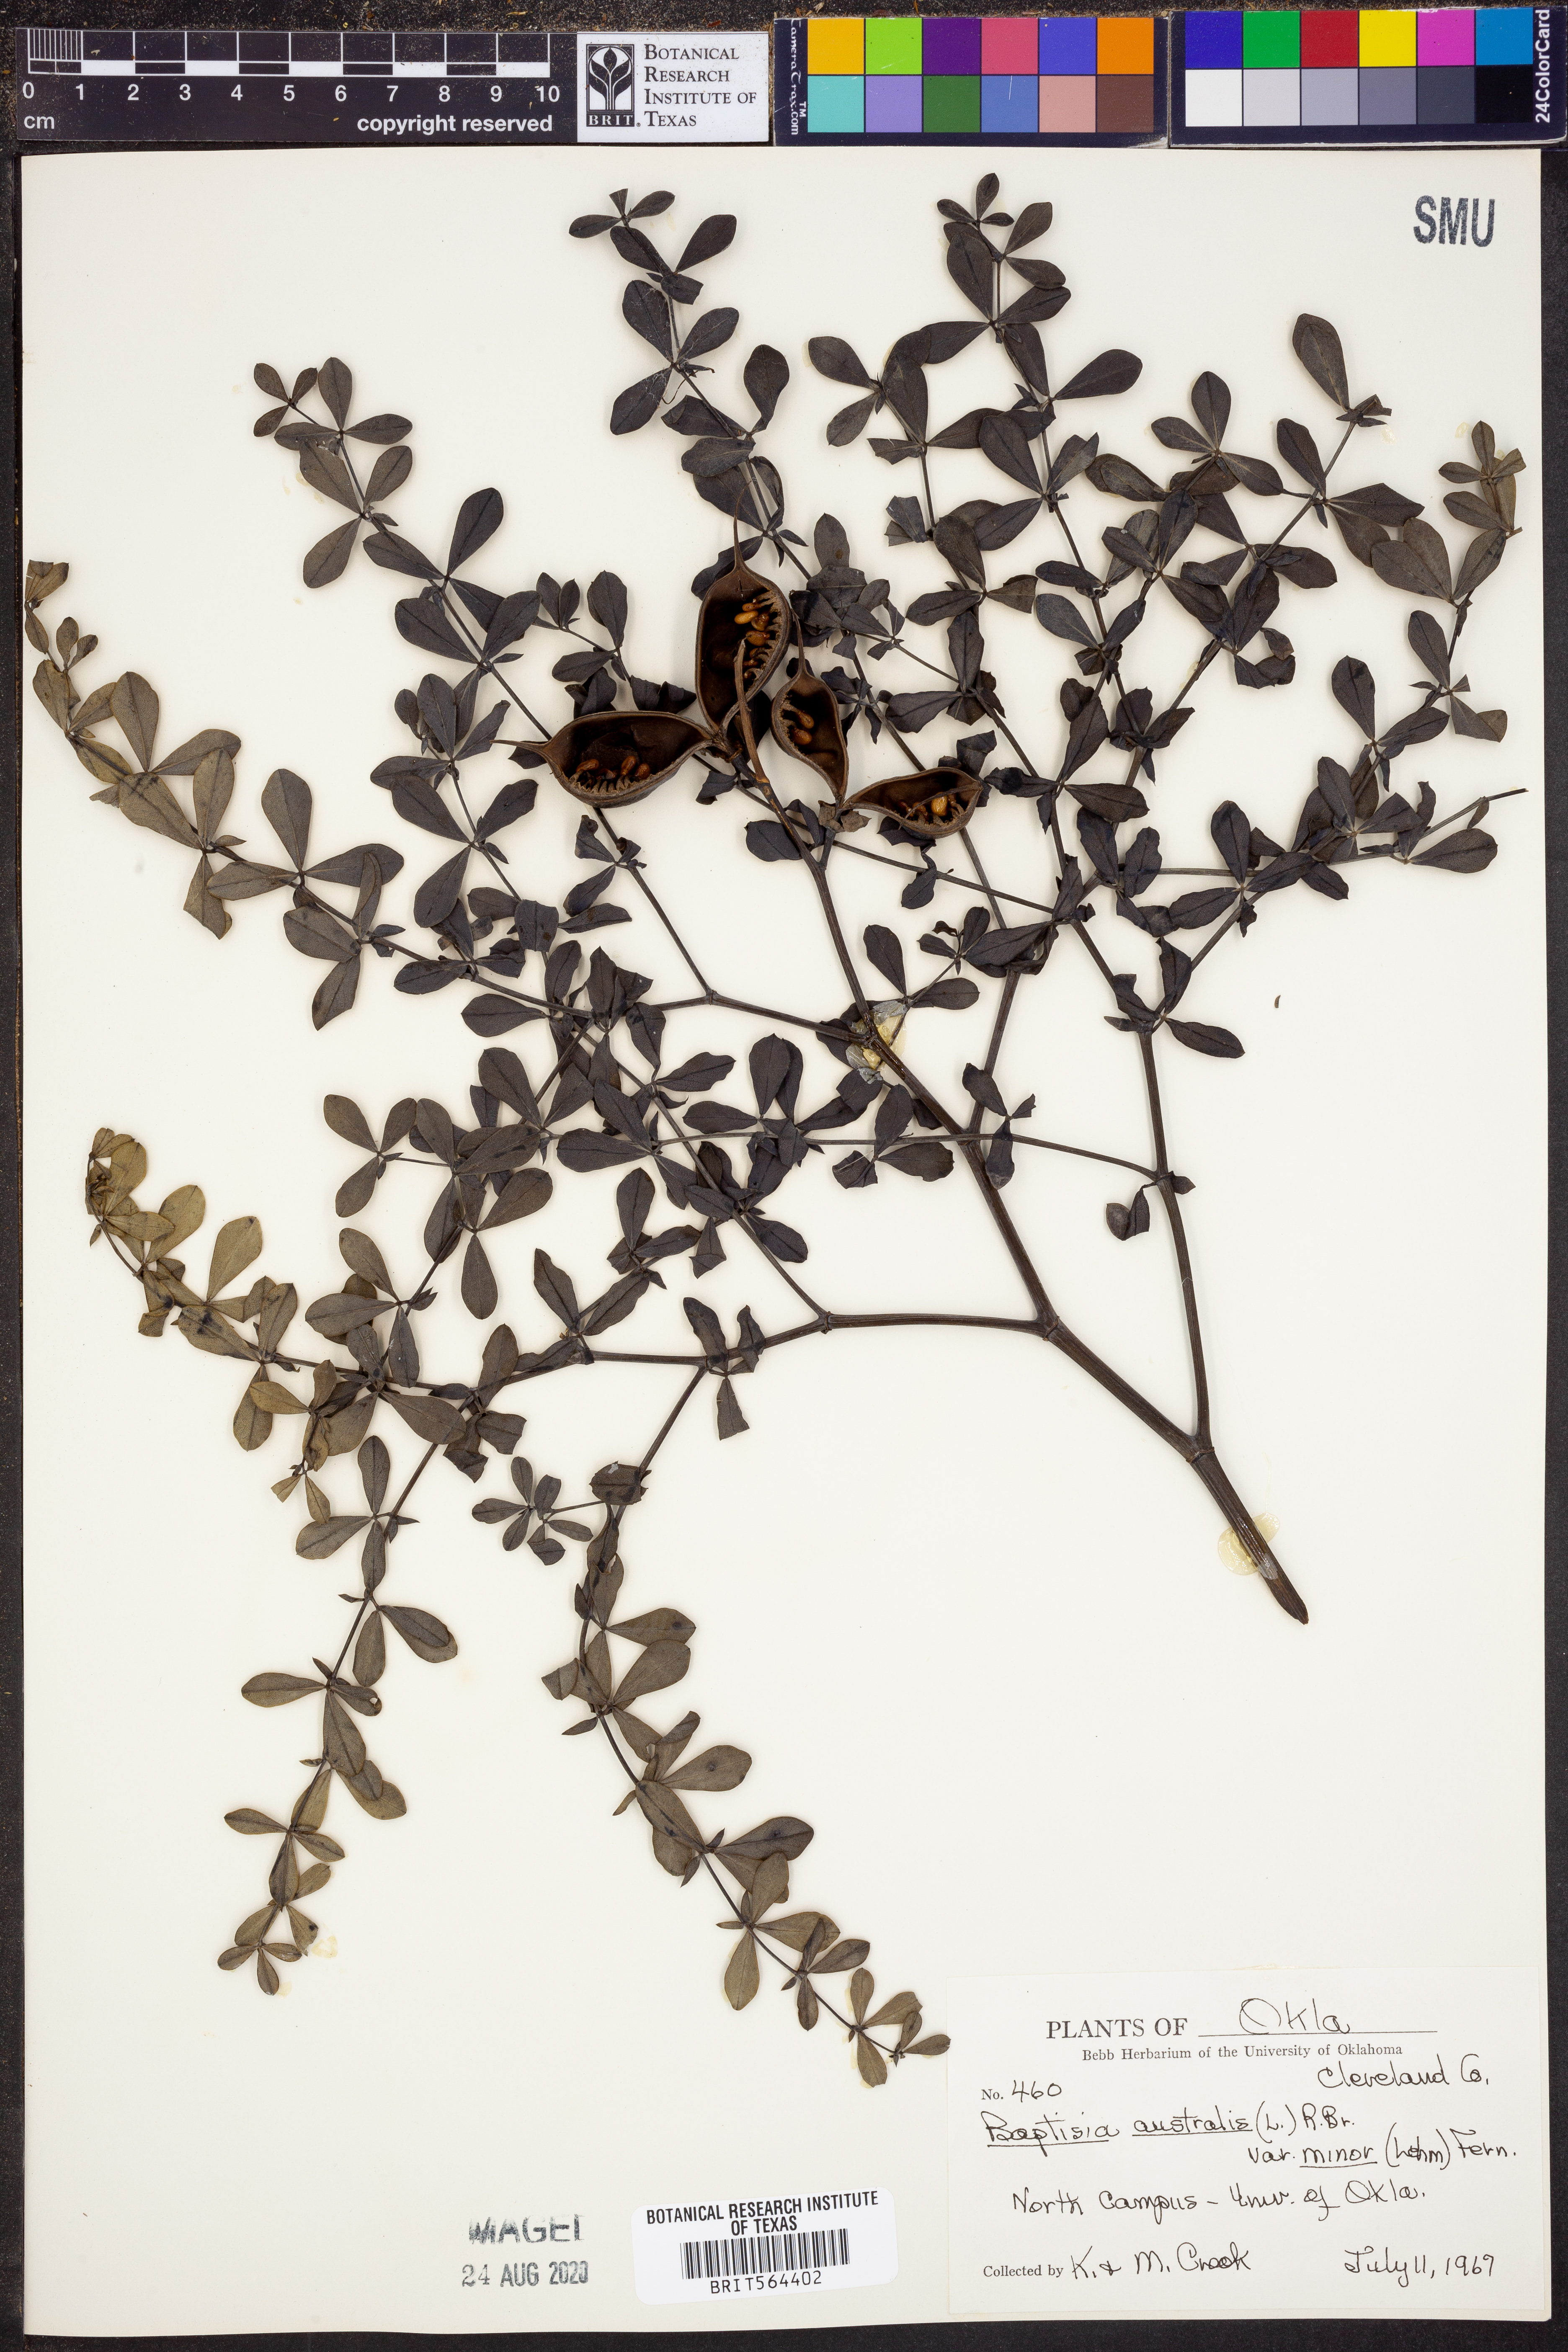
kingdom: Plantae
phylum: Tracheophyta
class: Magnoliopsida
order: Fabales
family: Fabaceae
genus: Baptisia
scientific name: Baptisia australis
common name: Blue false indigo
